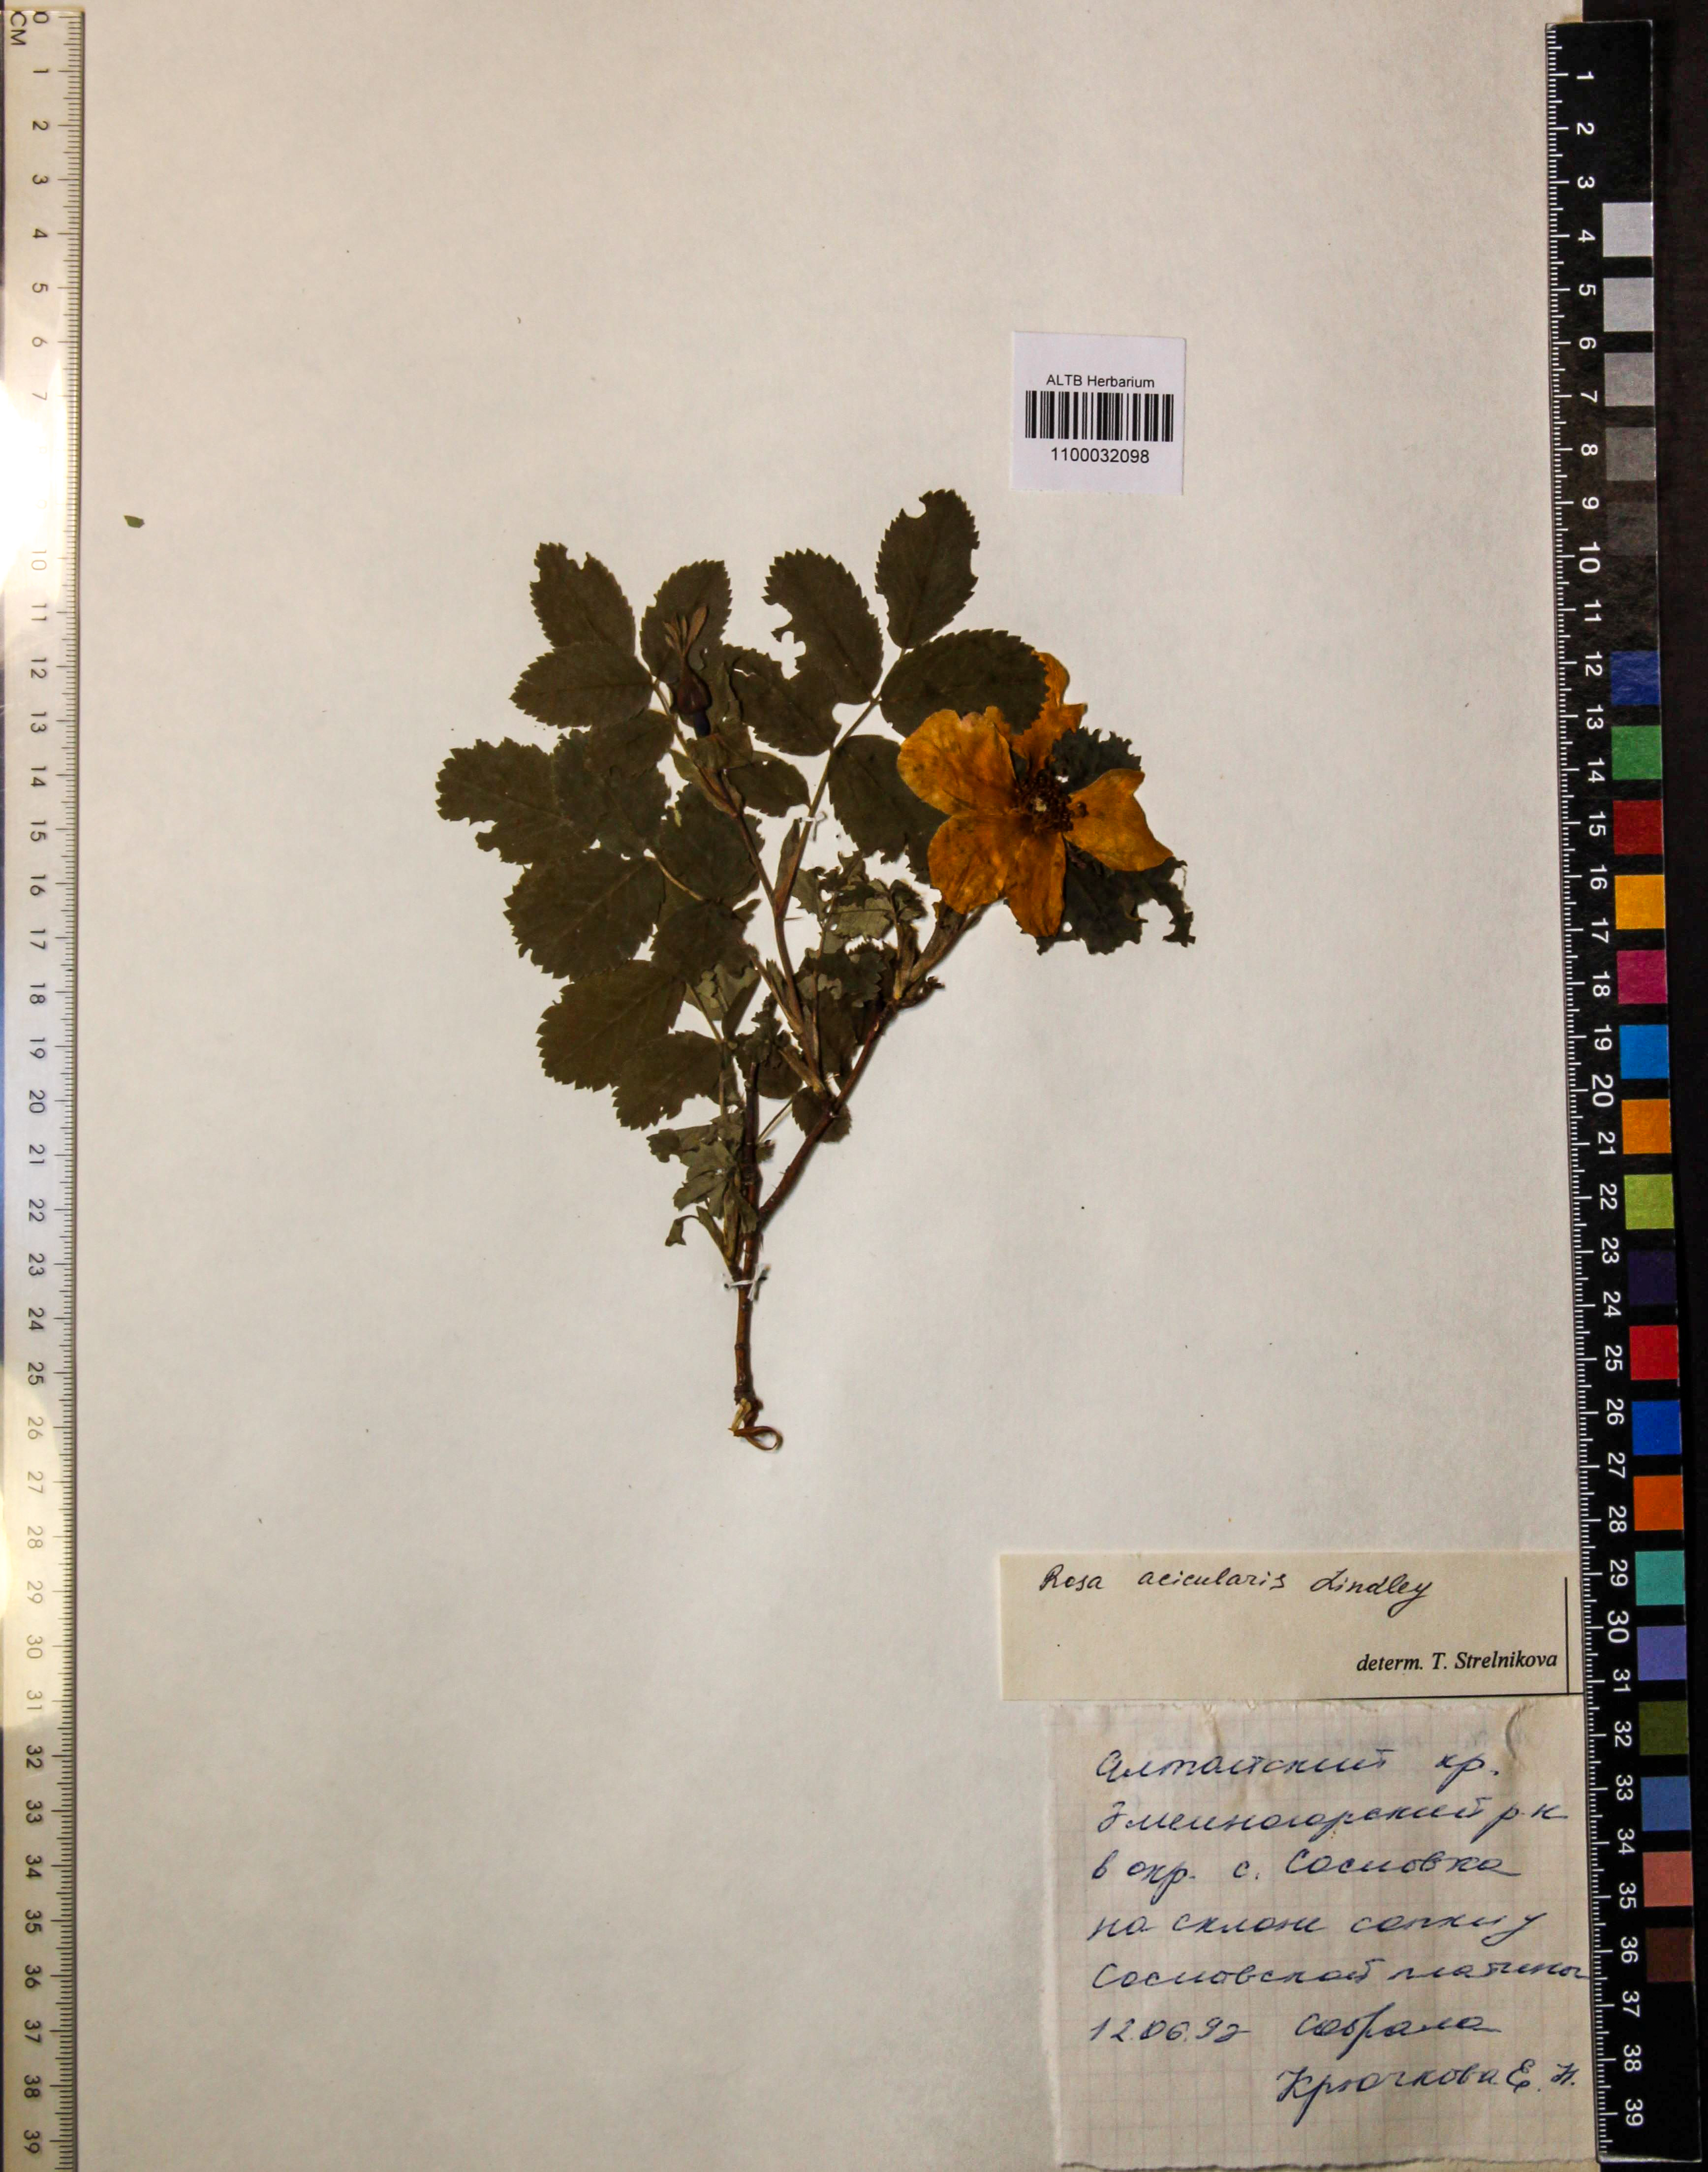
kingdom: Plantae
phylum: Tracheophyta
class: Magnoliopsida
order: Rosales
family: Rosaceae
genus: Rosa
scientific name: Rosa acicularis
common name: Prickly rose
